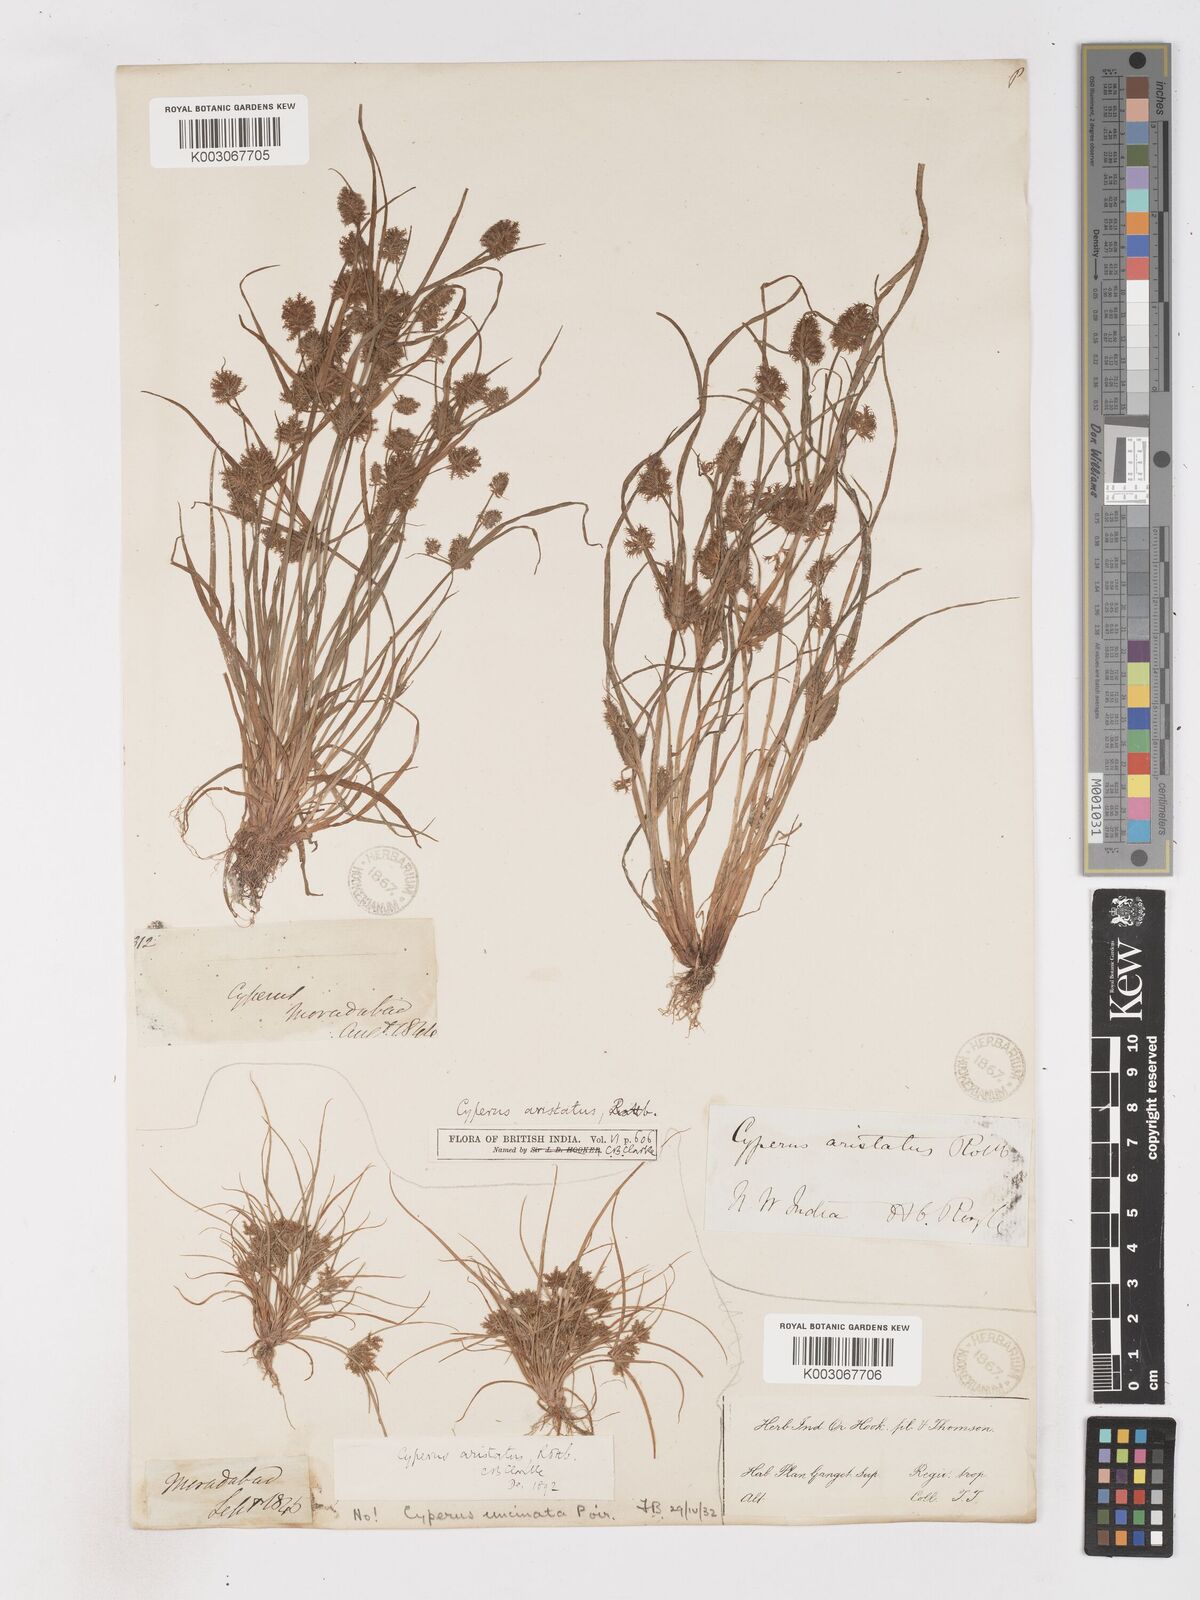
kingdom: Plantae
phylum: Tracheophyta
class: Liliopsida
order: Poales
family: Cyperaceae
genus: Cyperus
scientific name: Cyperus squarrosus
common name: Awned cyperus
